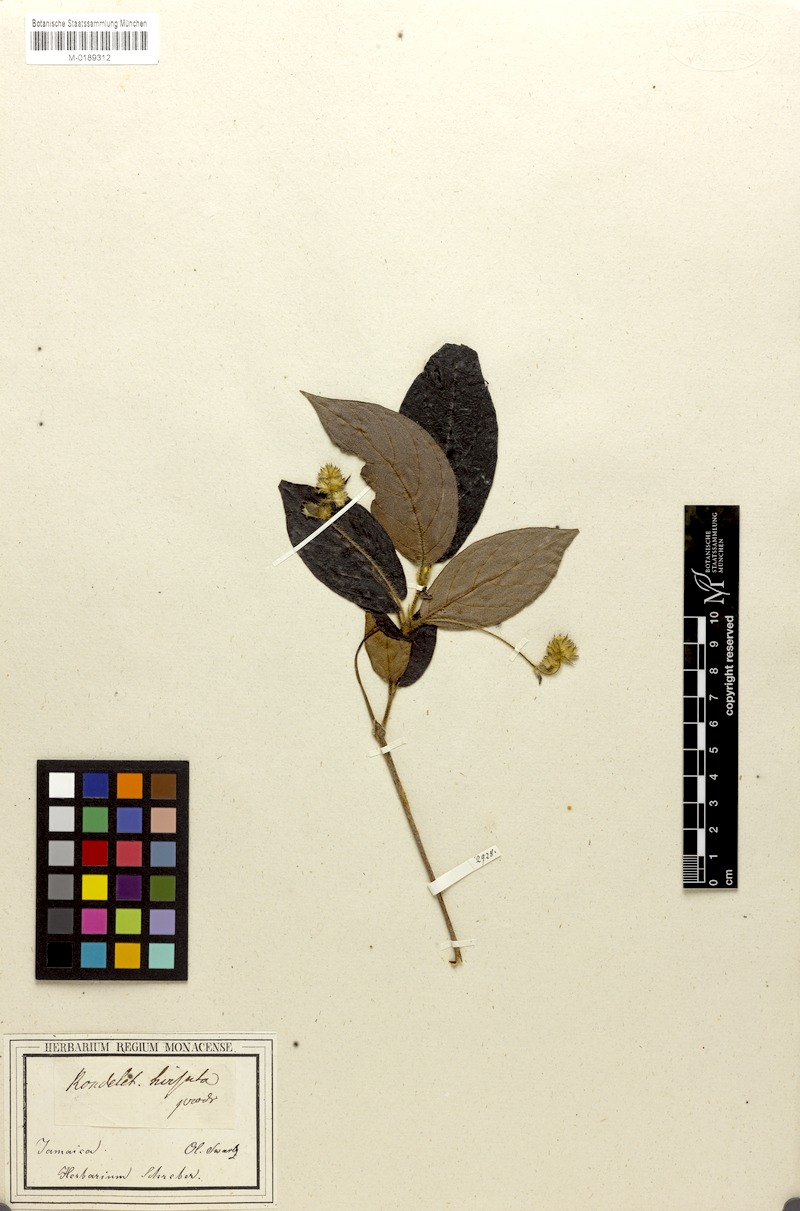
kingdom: Plantae
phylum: Tracheophyta
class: Magnoliopsida
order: Gentianales
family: Rubiaceae
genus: Rondeletia
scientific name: Rondeletia incana
